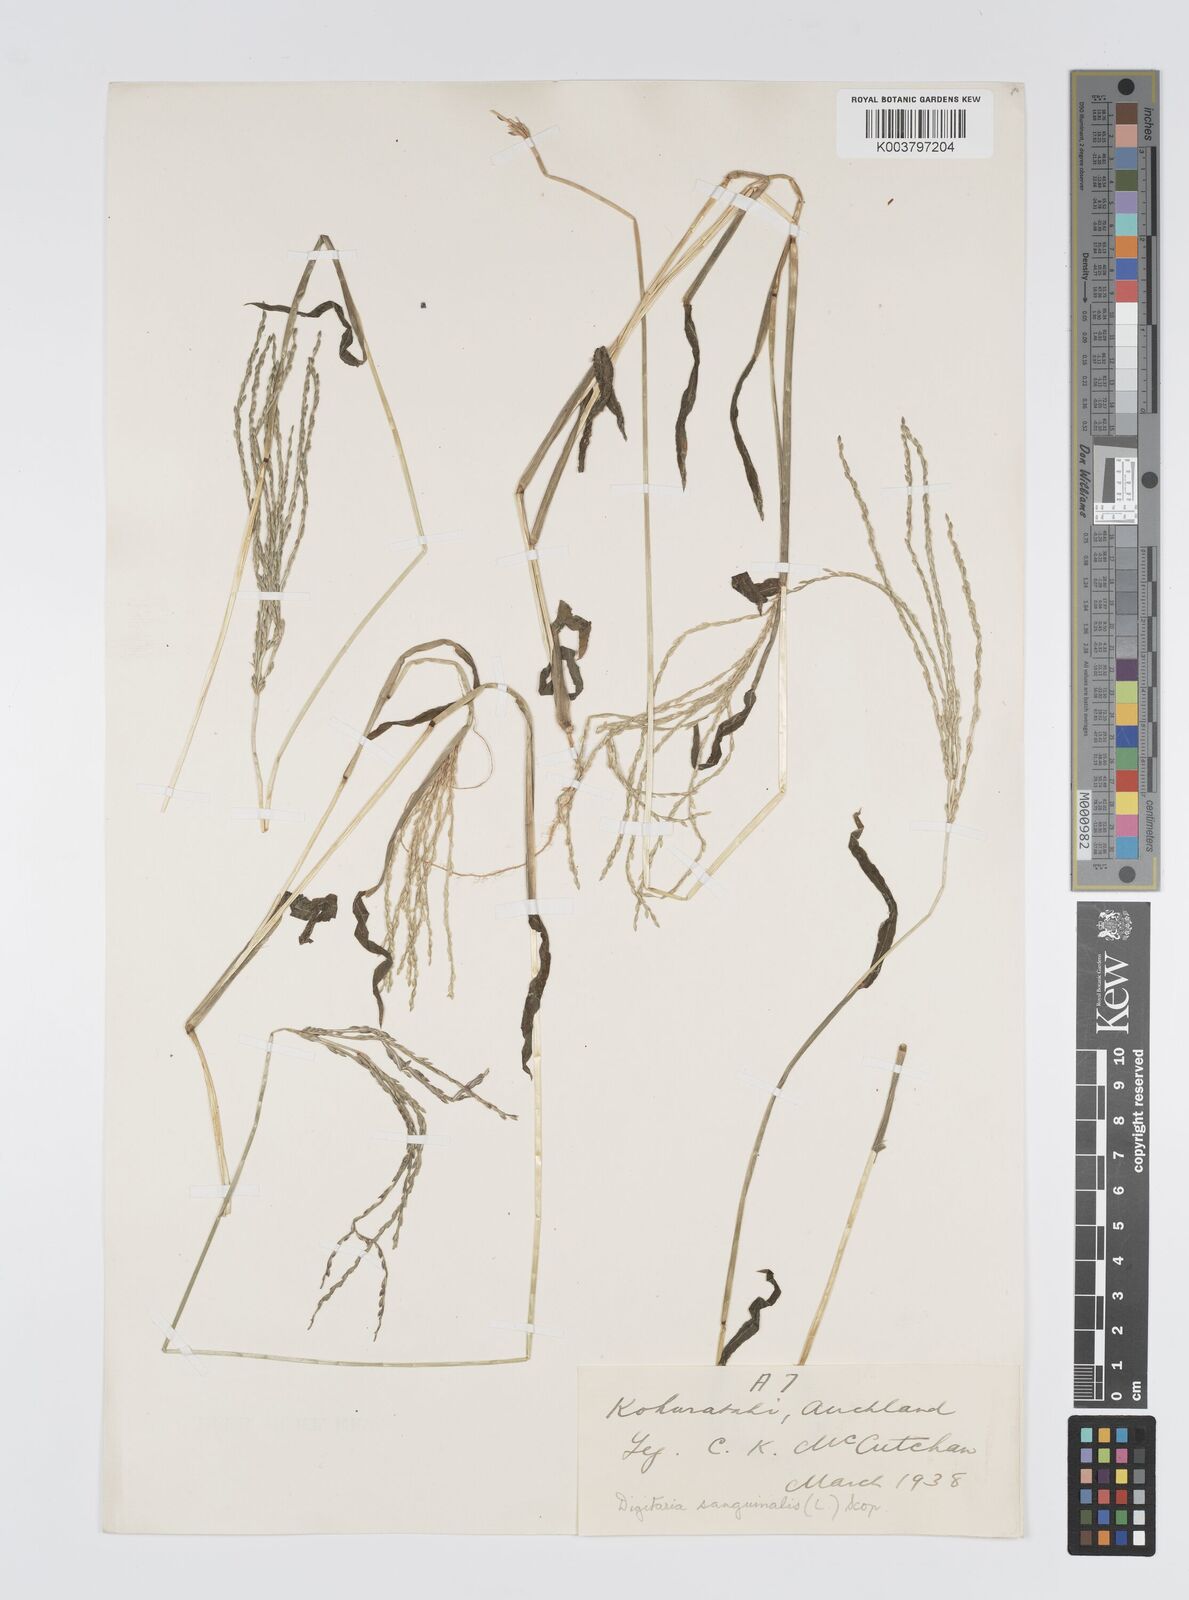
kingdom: Plantae
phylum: Tracheophyta
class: Liliopsida
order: Poales
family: Poaceae
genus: Digitaria
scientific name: Digitaria sanguinalis
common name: Hairy crabgrass
